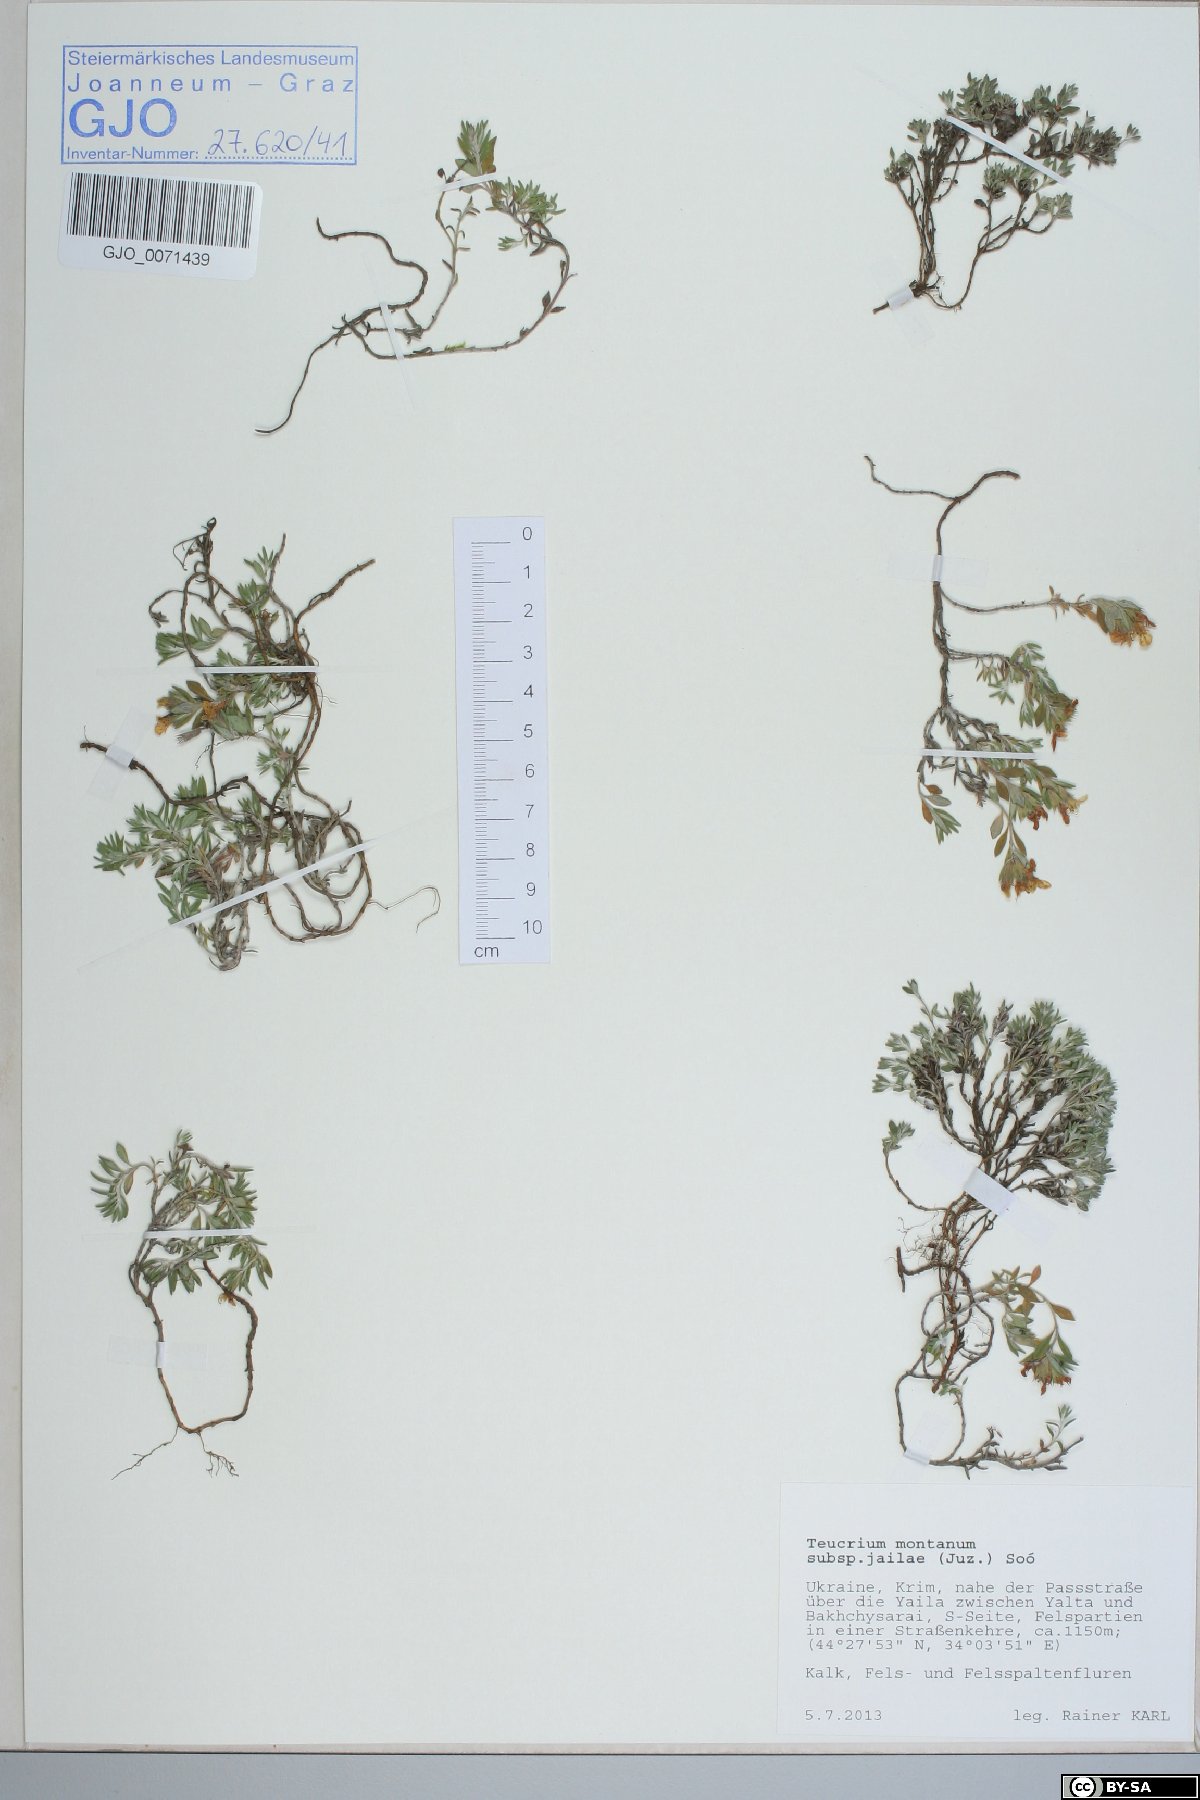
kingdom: Plantae
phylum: Tracheophyta
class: Magnoliopsida
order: Lamiales
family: Lamiaceae
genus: Teucrium
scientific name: Teucrium montanum
